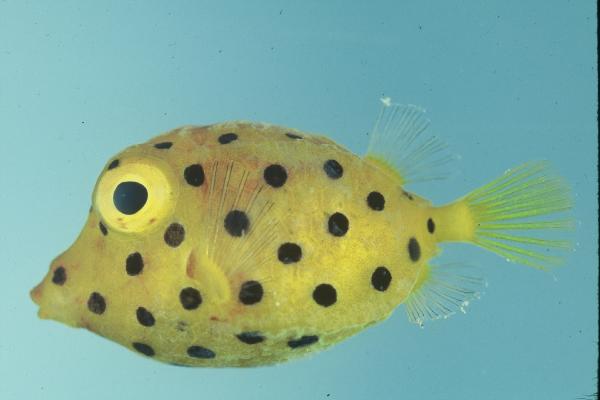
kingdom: Animalia
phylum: Chordata
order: Tetraodontiformes
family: Ostraciidae
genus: Ostracion
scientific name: Ostracion cubicus
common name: Cube trunkfish
